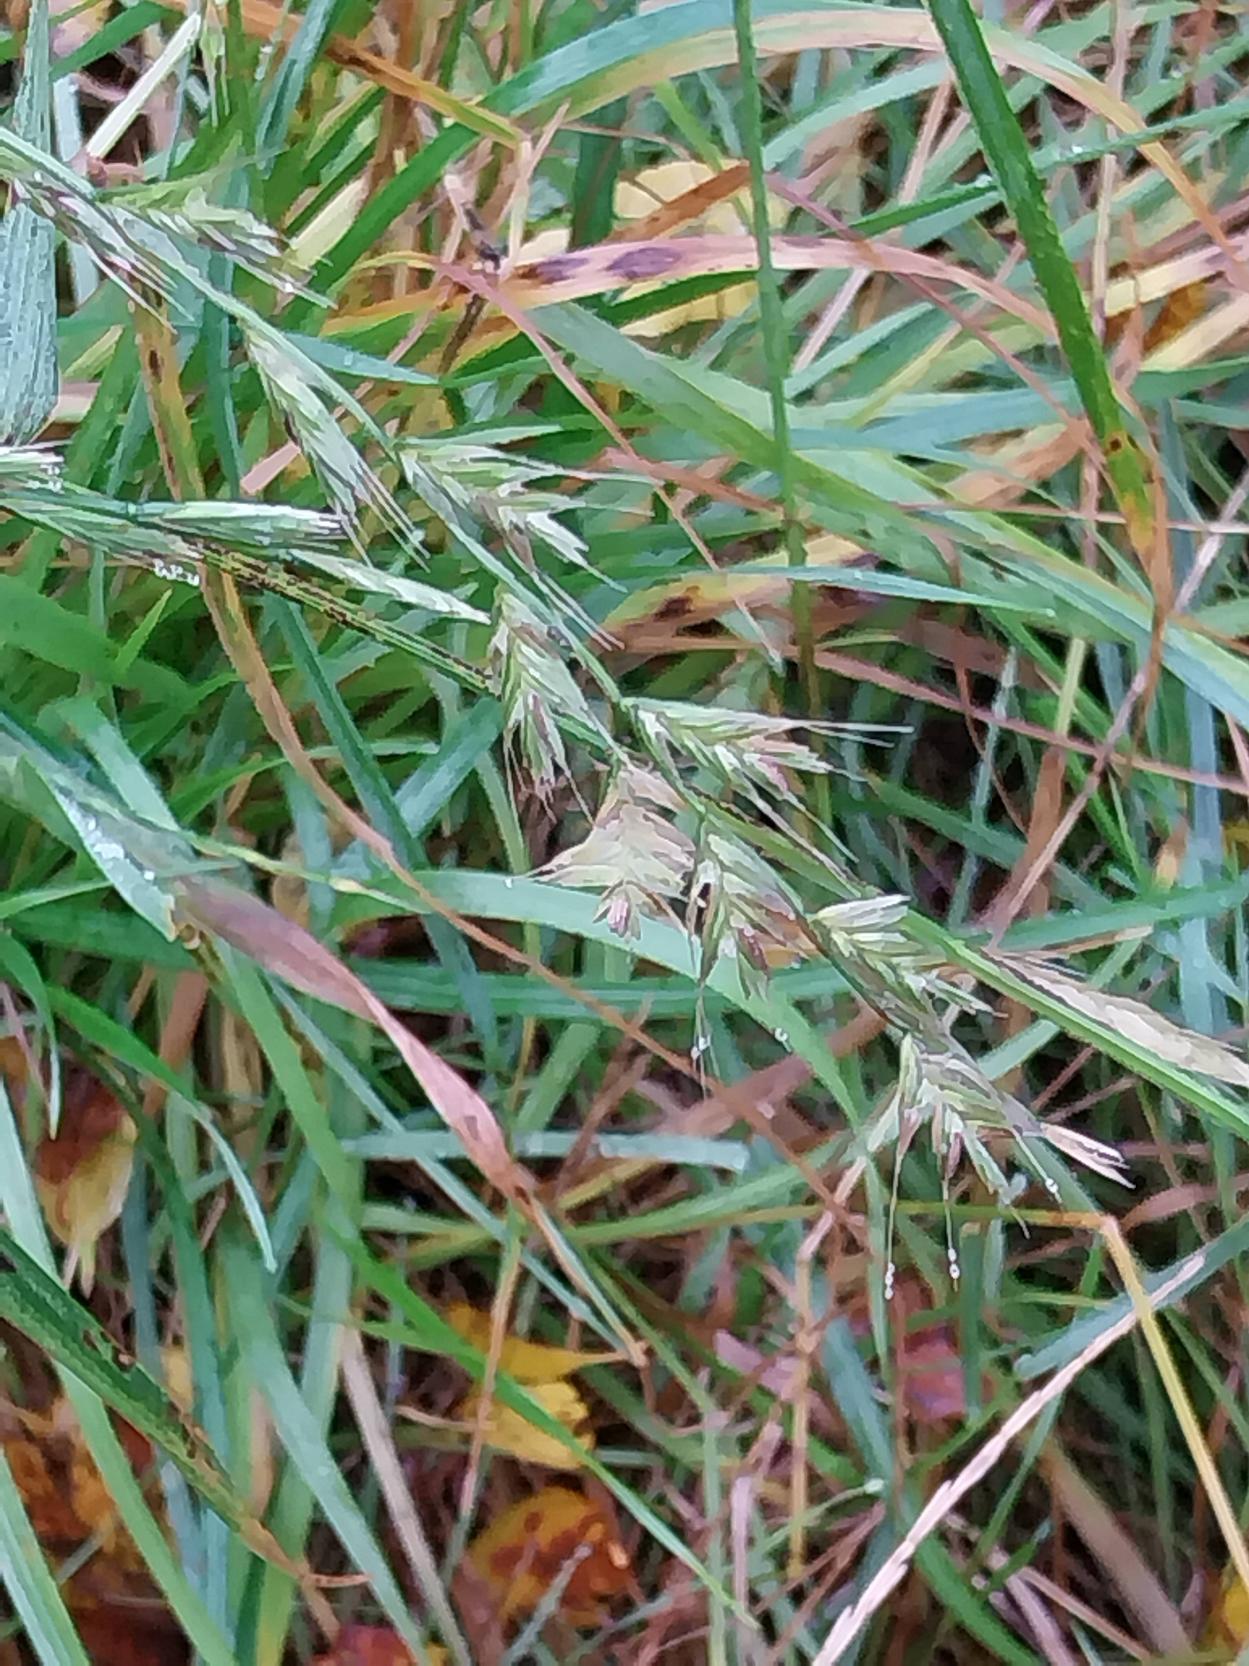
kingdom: Plantae
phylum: Tracheophyta
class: Liliopsida
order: Poales
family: Poaceae
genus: Lolium
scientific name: Lolium
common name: Italiensk rajgræs × almindelig rajgræs
